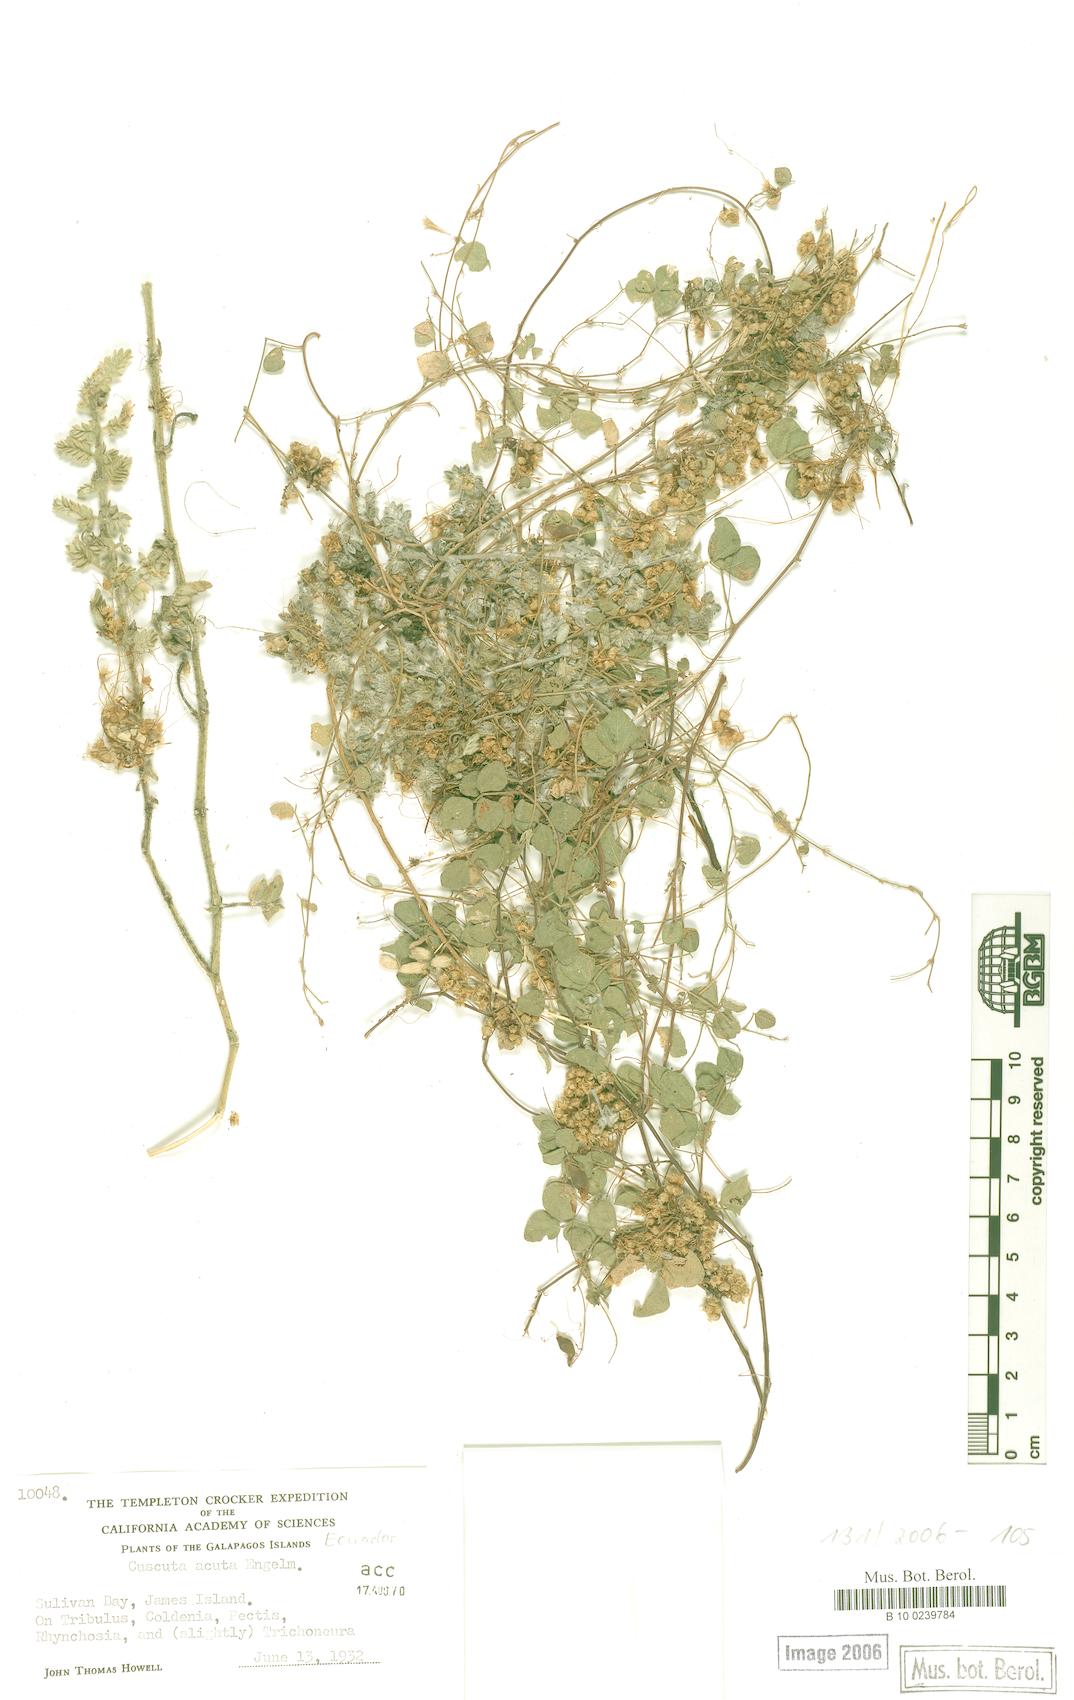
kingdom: Plantae
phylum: Tracheophyta
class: Magnoliopsida
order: Solanales
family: Convolvulaceae
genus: Cuscuta
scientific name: Cuscuta acuta
